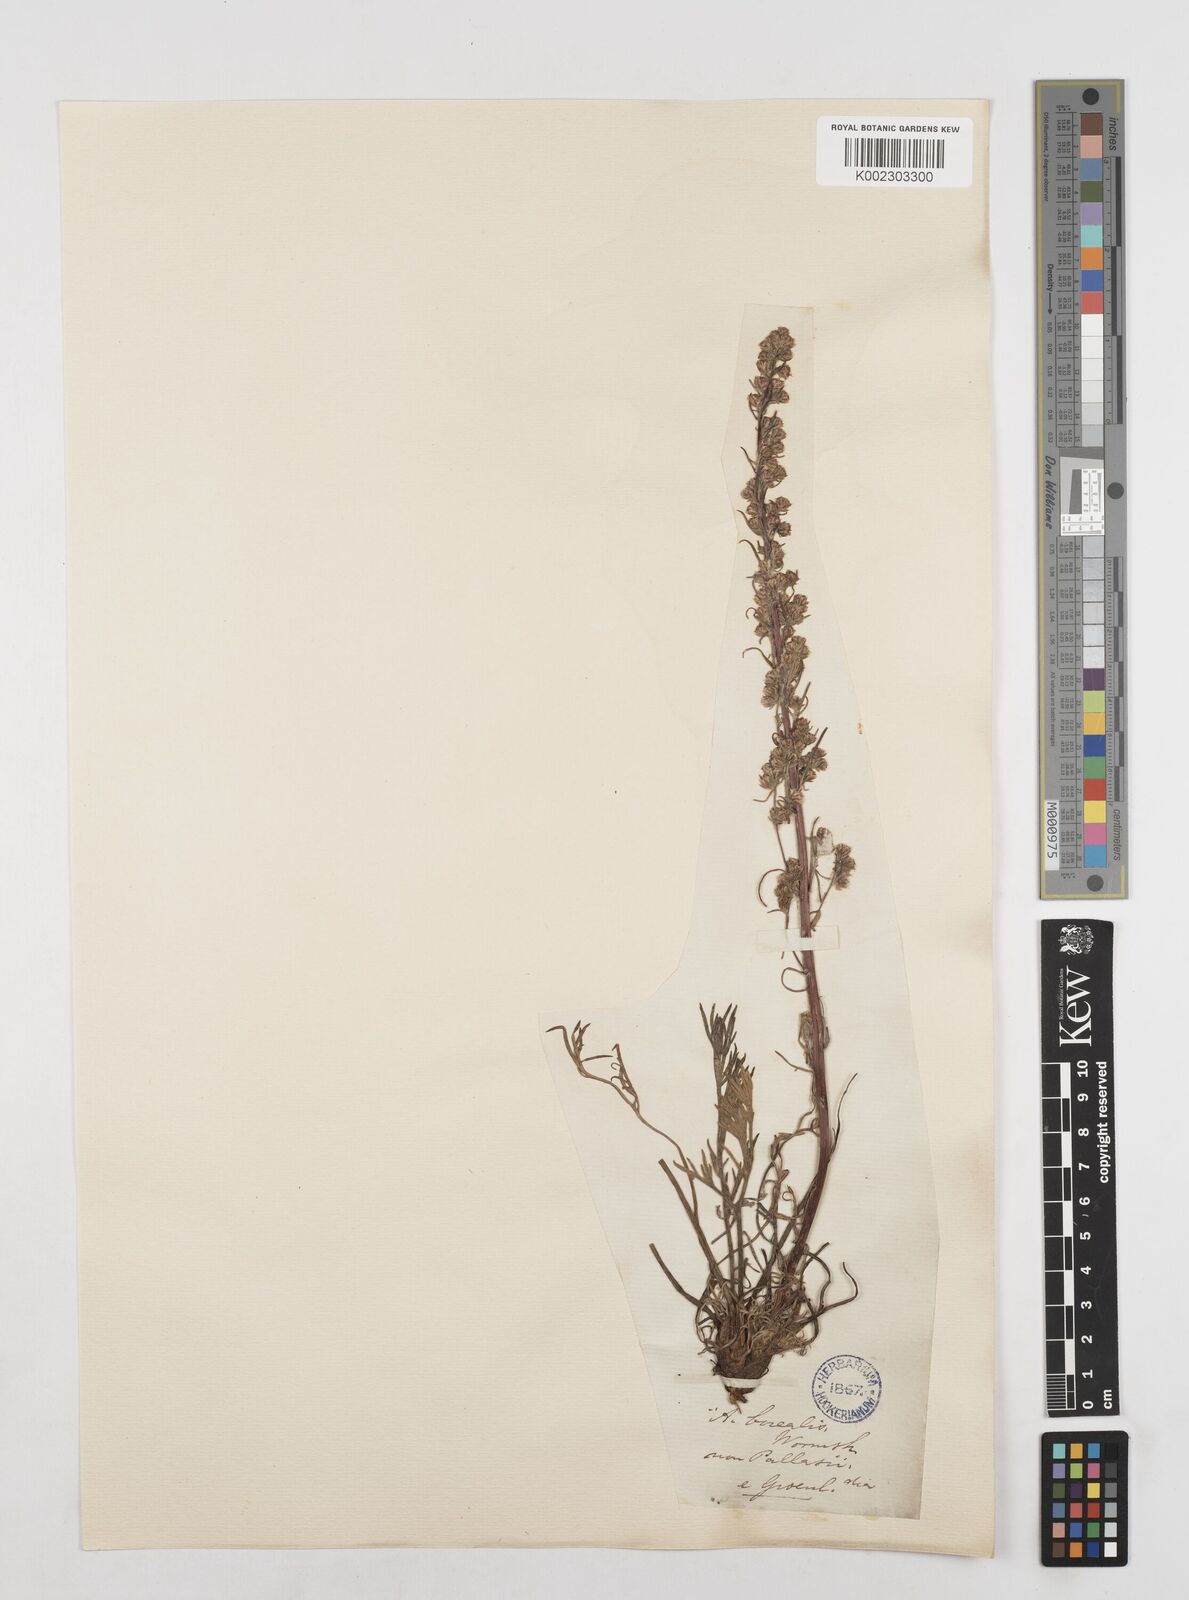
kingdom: Plantae
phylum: Tracheophyta
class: Magnoliopsida
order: Asterales
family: Asteraceae
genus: Artemisia
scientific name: Artemisia
